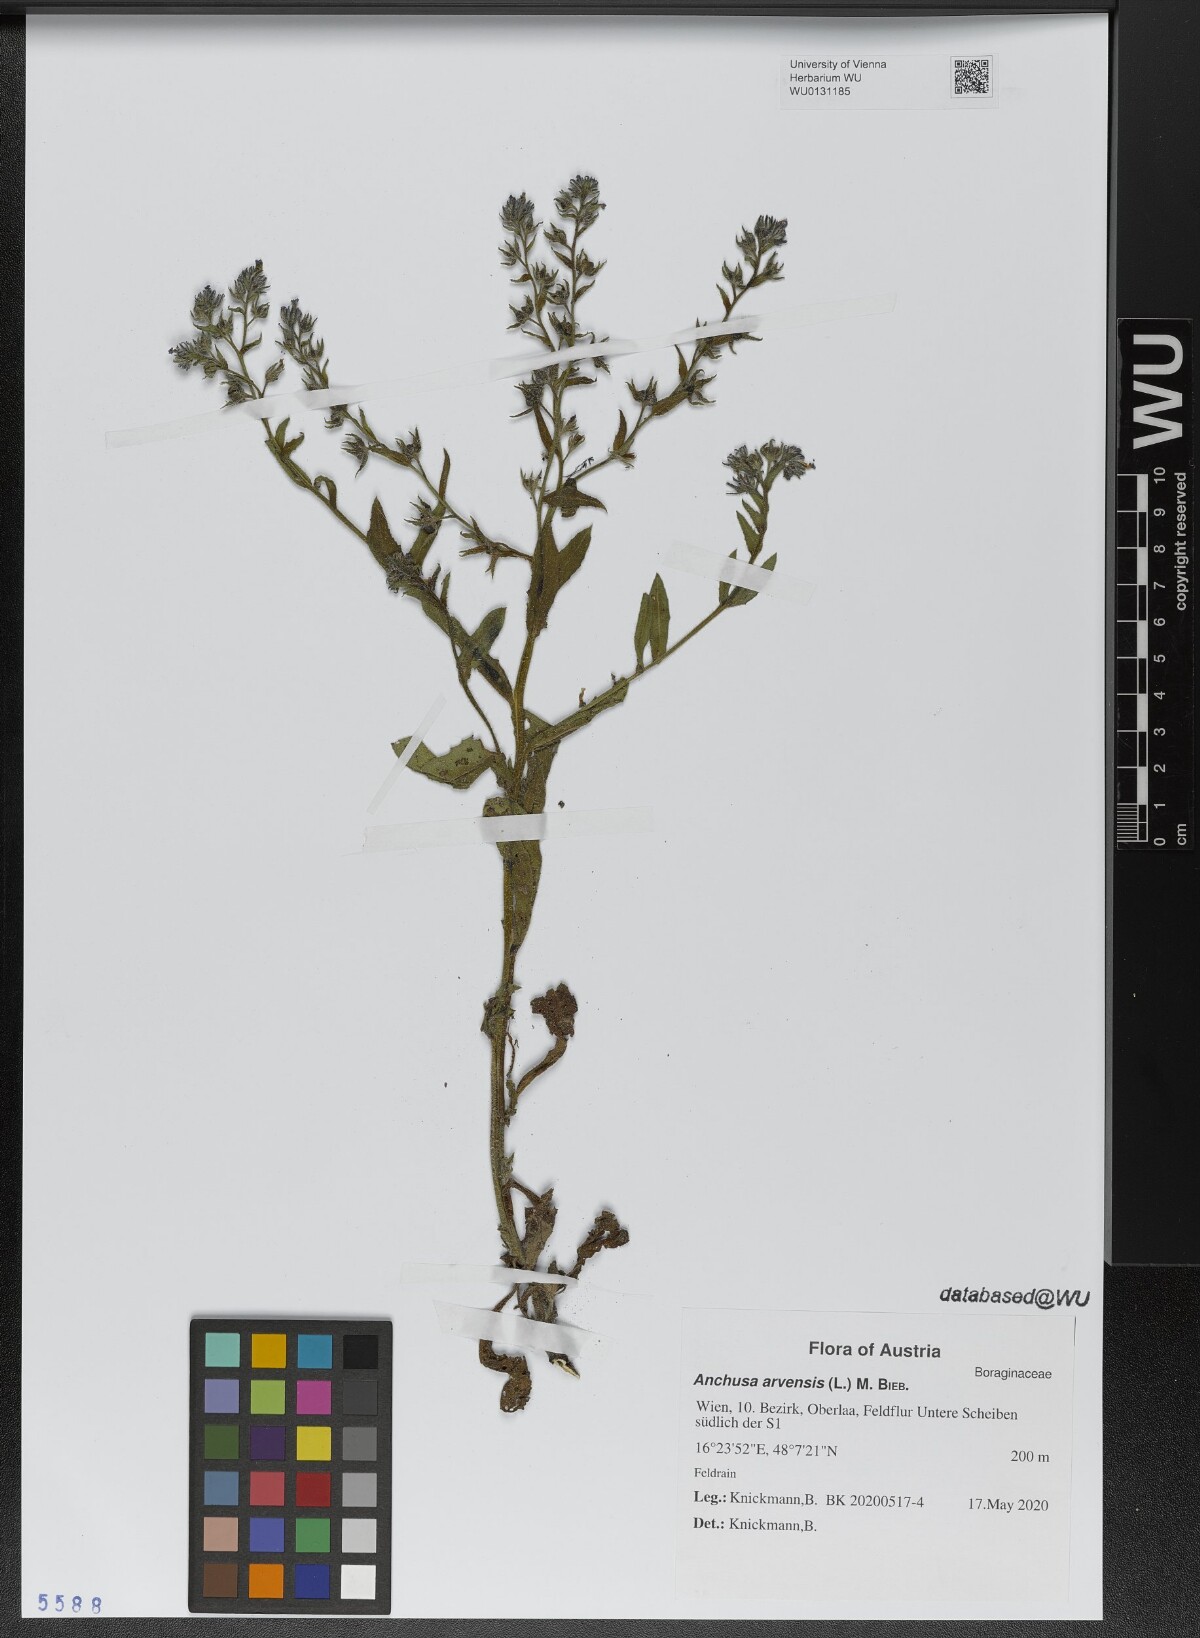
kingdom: Plantae
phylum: Tracheophyta
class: Magnoliopsida
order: Boraginales
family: Boraginaceae
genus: Lycopsis
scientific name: Lycopsis arvensis
